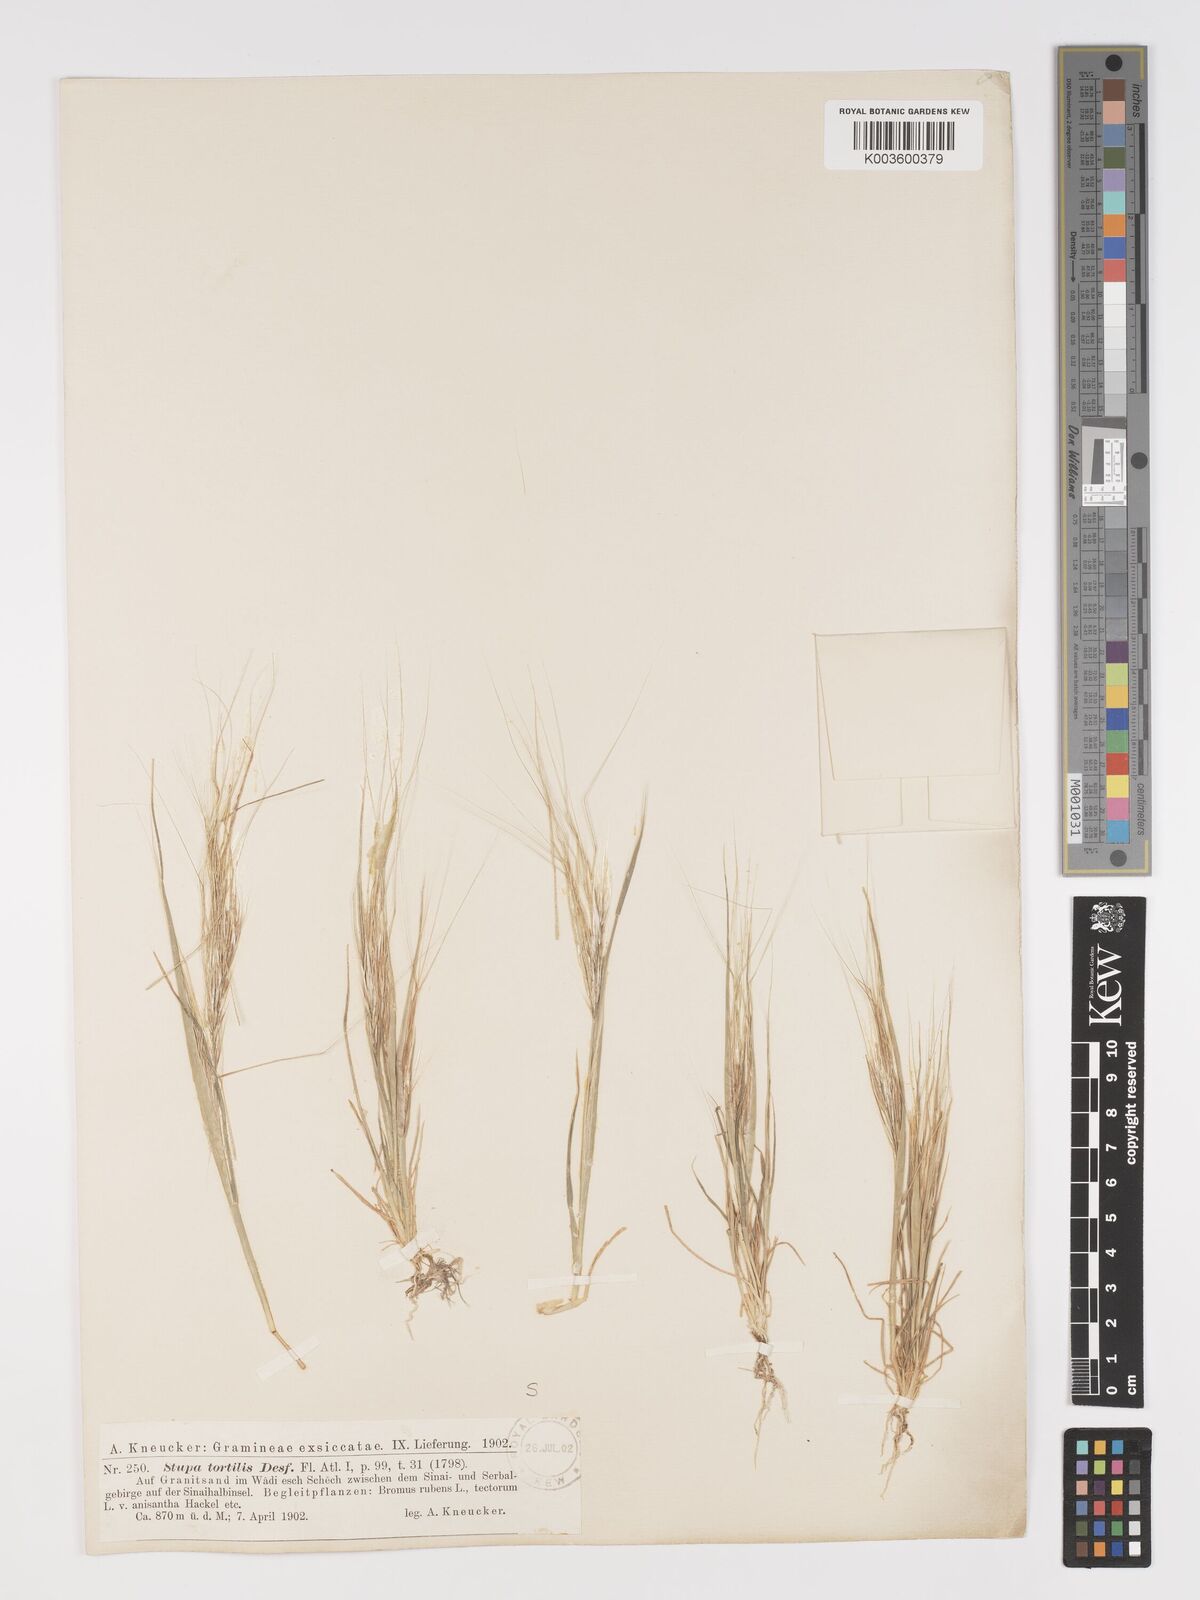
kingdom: Plantae
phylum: Tracheophyta
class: Liliopsida
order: Poales
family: Poaceae
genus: Stipellula
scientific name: Stipellula capensis
